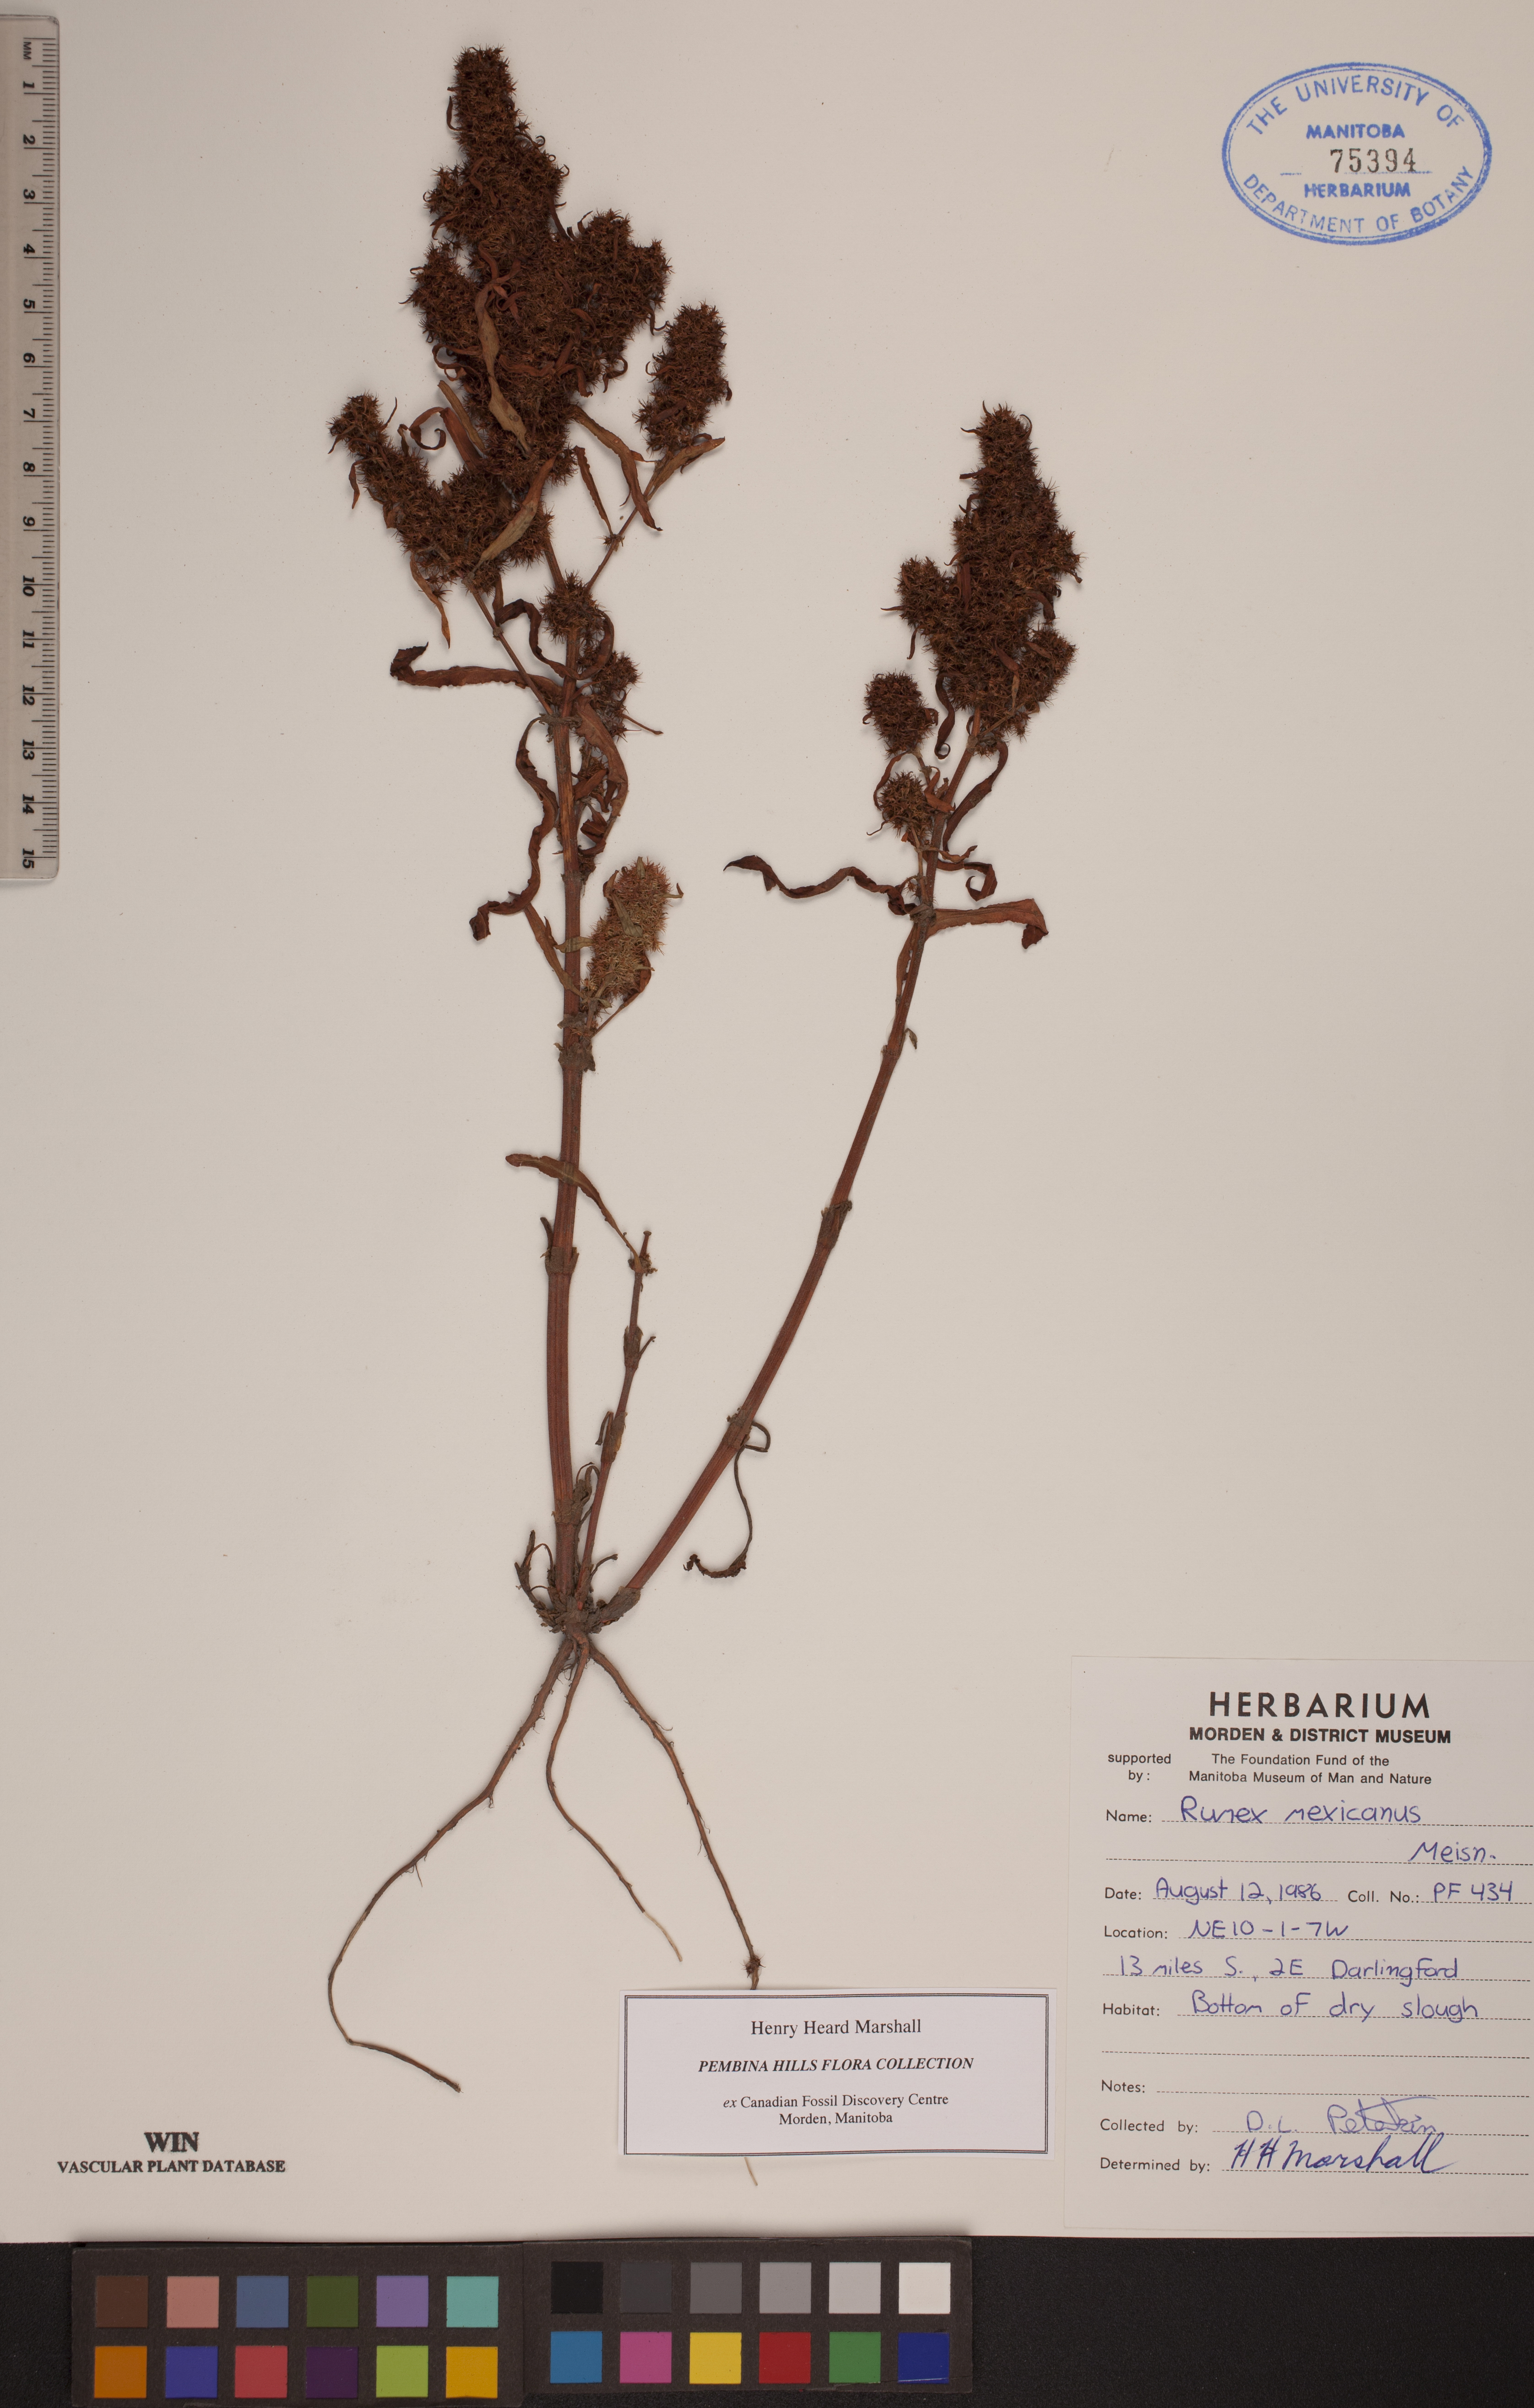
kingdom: Plantae
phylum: Tracheophyta
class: Magnoliopsida
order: Caryophyllales
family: Polygonaceae
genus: Rumex
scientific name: Rumex triangulivalvis
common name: Triangular-valve dock
